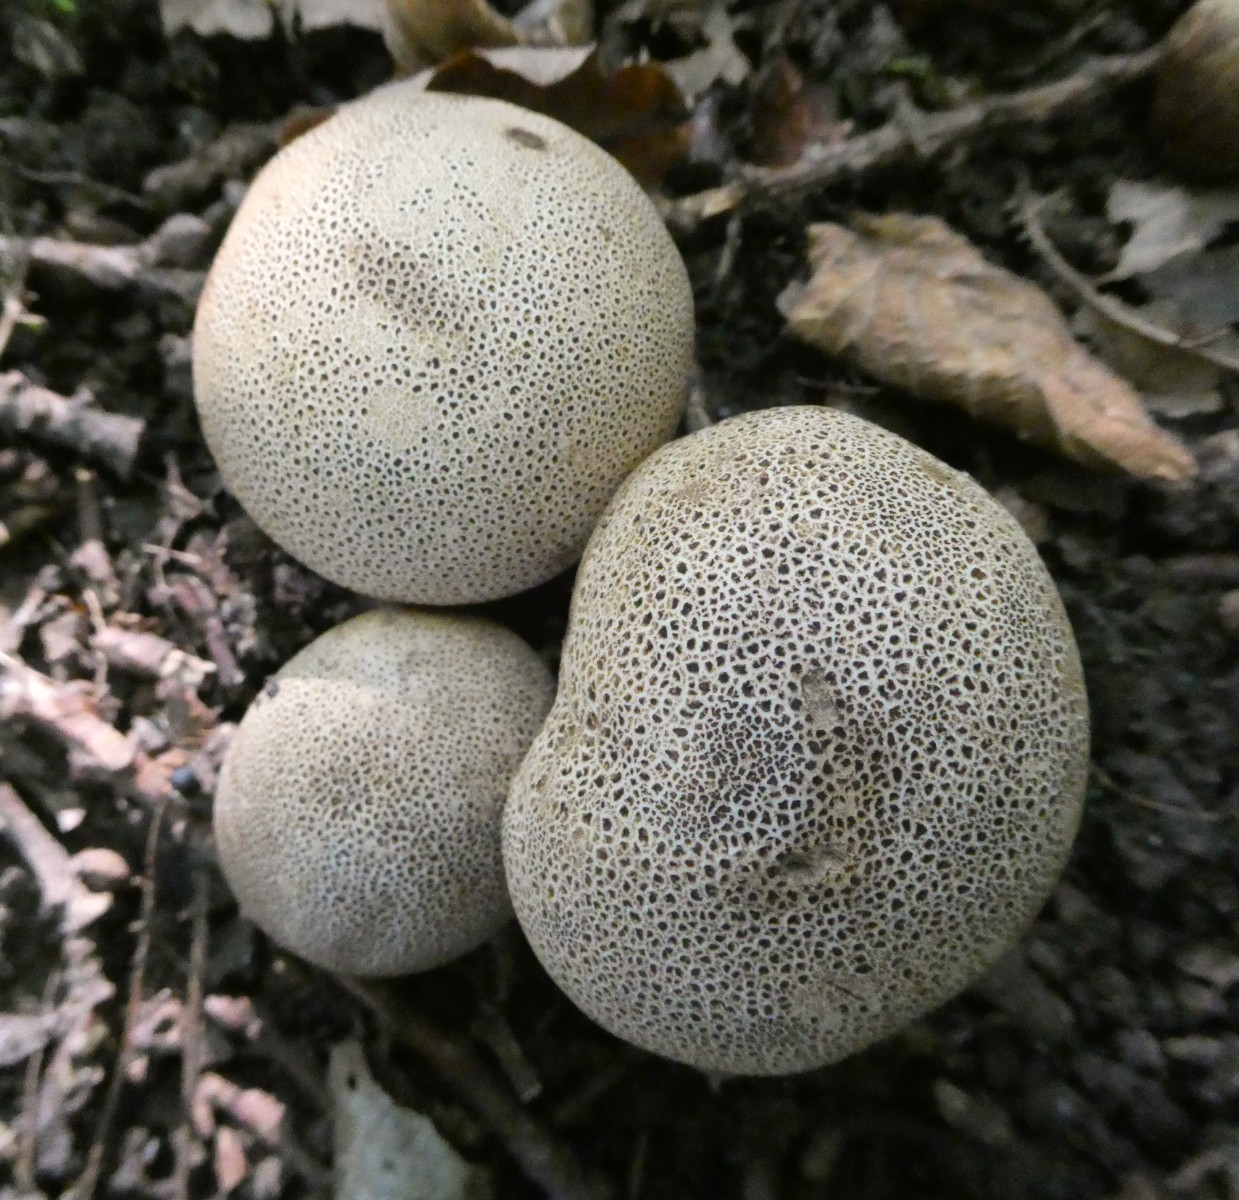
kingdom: Fungi
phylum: Basidiomycota
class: Agaricomycetes
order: Boletales
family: Sclerodermataceae
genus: Scleroderma
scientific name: Scleroderma verrucosum
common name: stilket bruskbold
